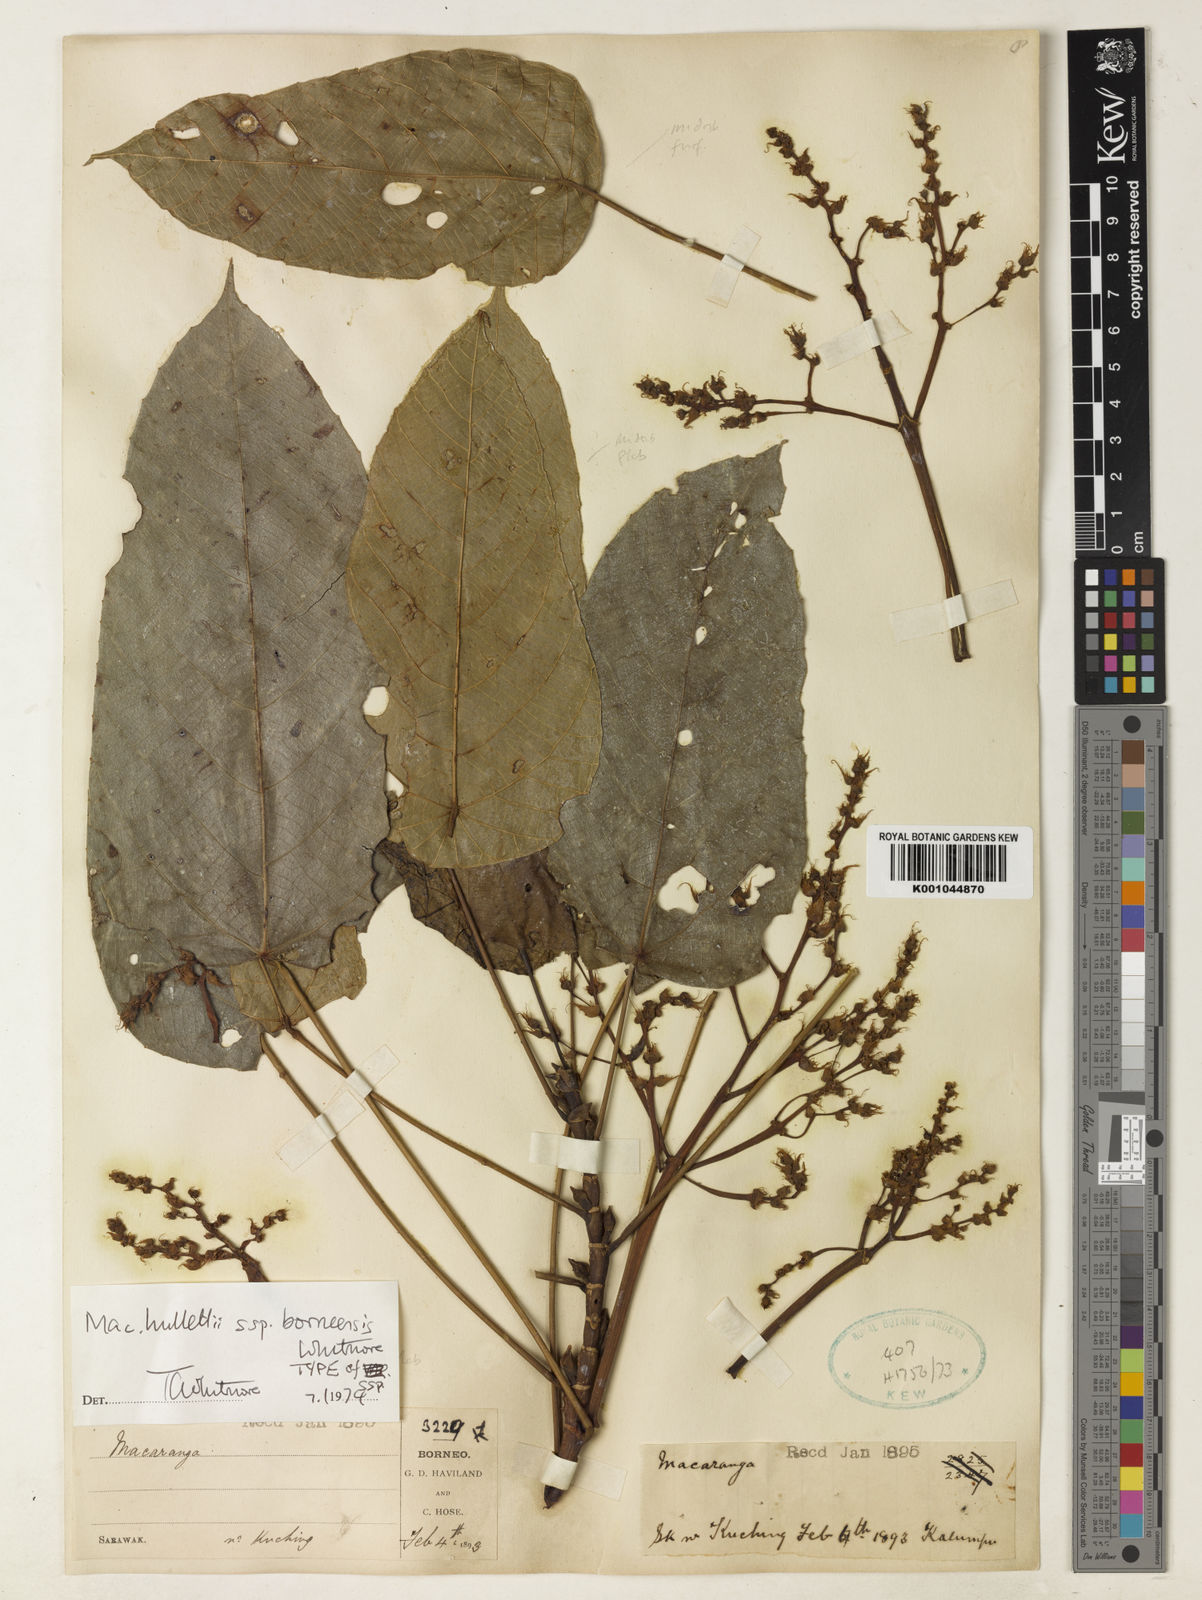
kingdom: Plantae
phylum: Tracheophyta
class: Magnoliopsida
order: Malpighiales
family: Euphorbiaceae
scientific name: Euphorbiaceae
